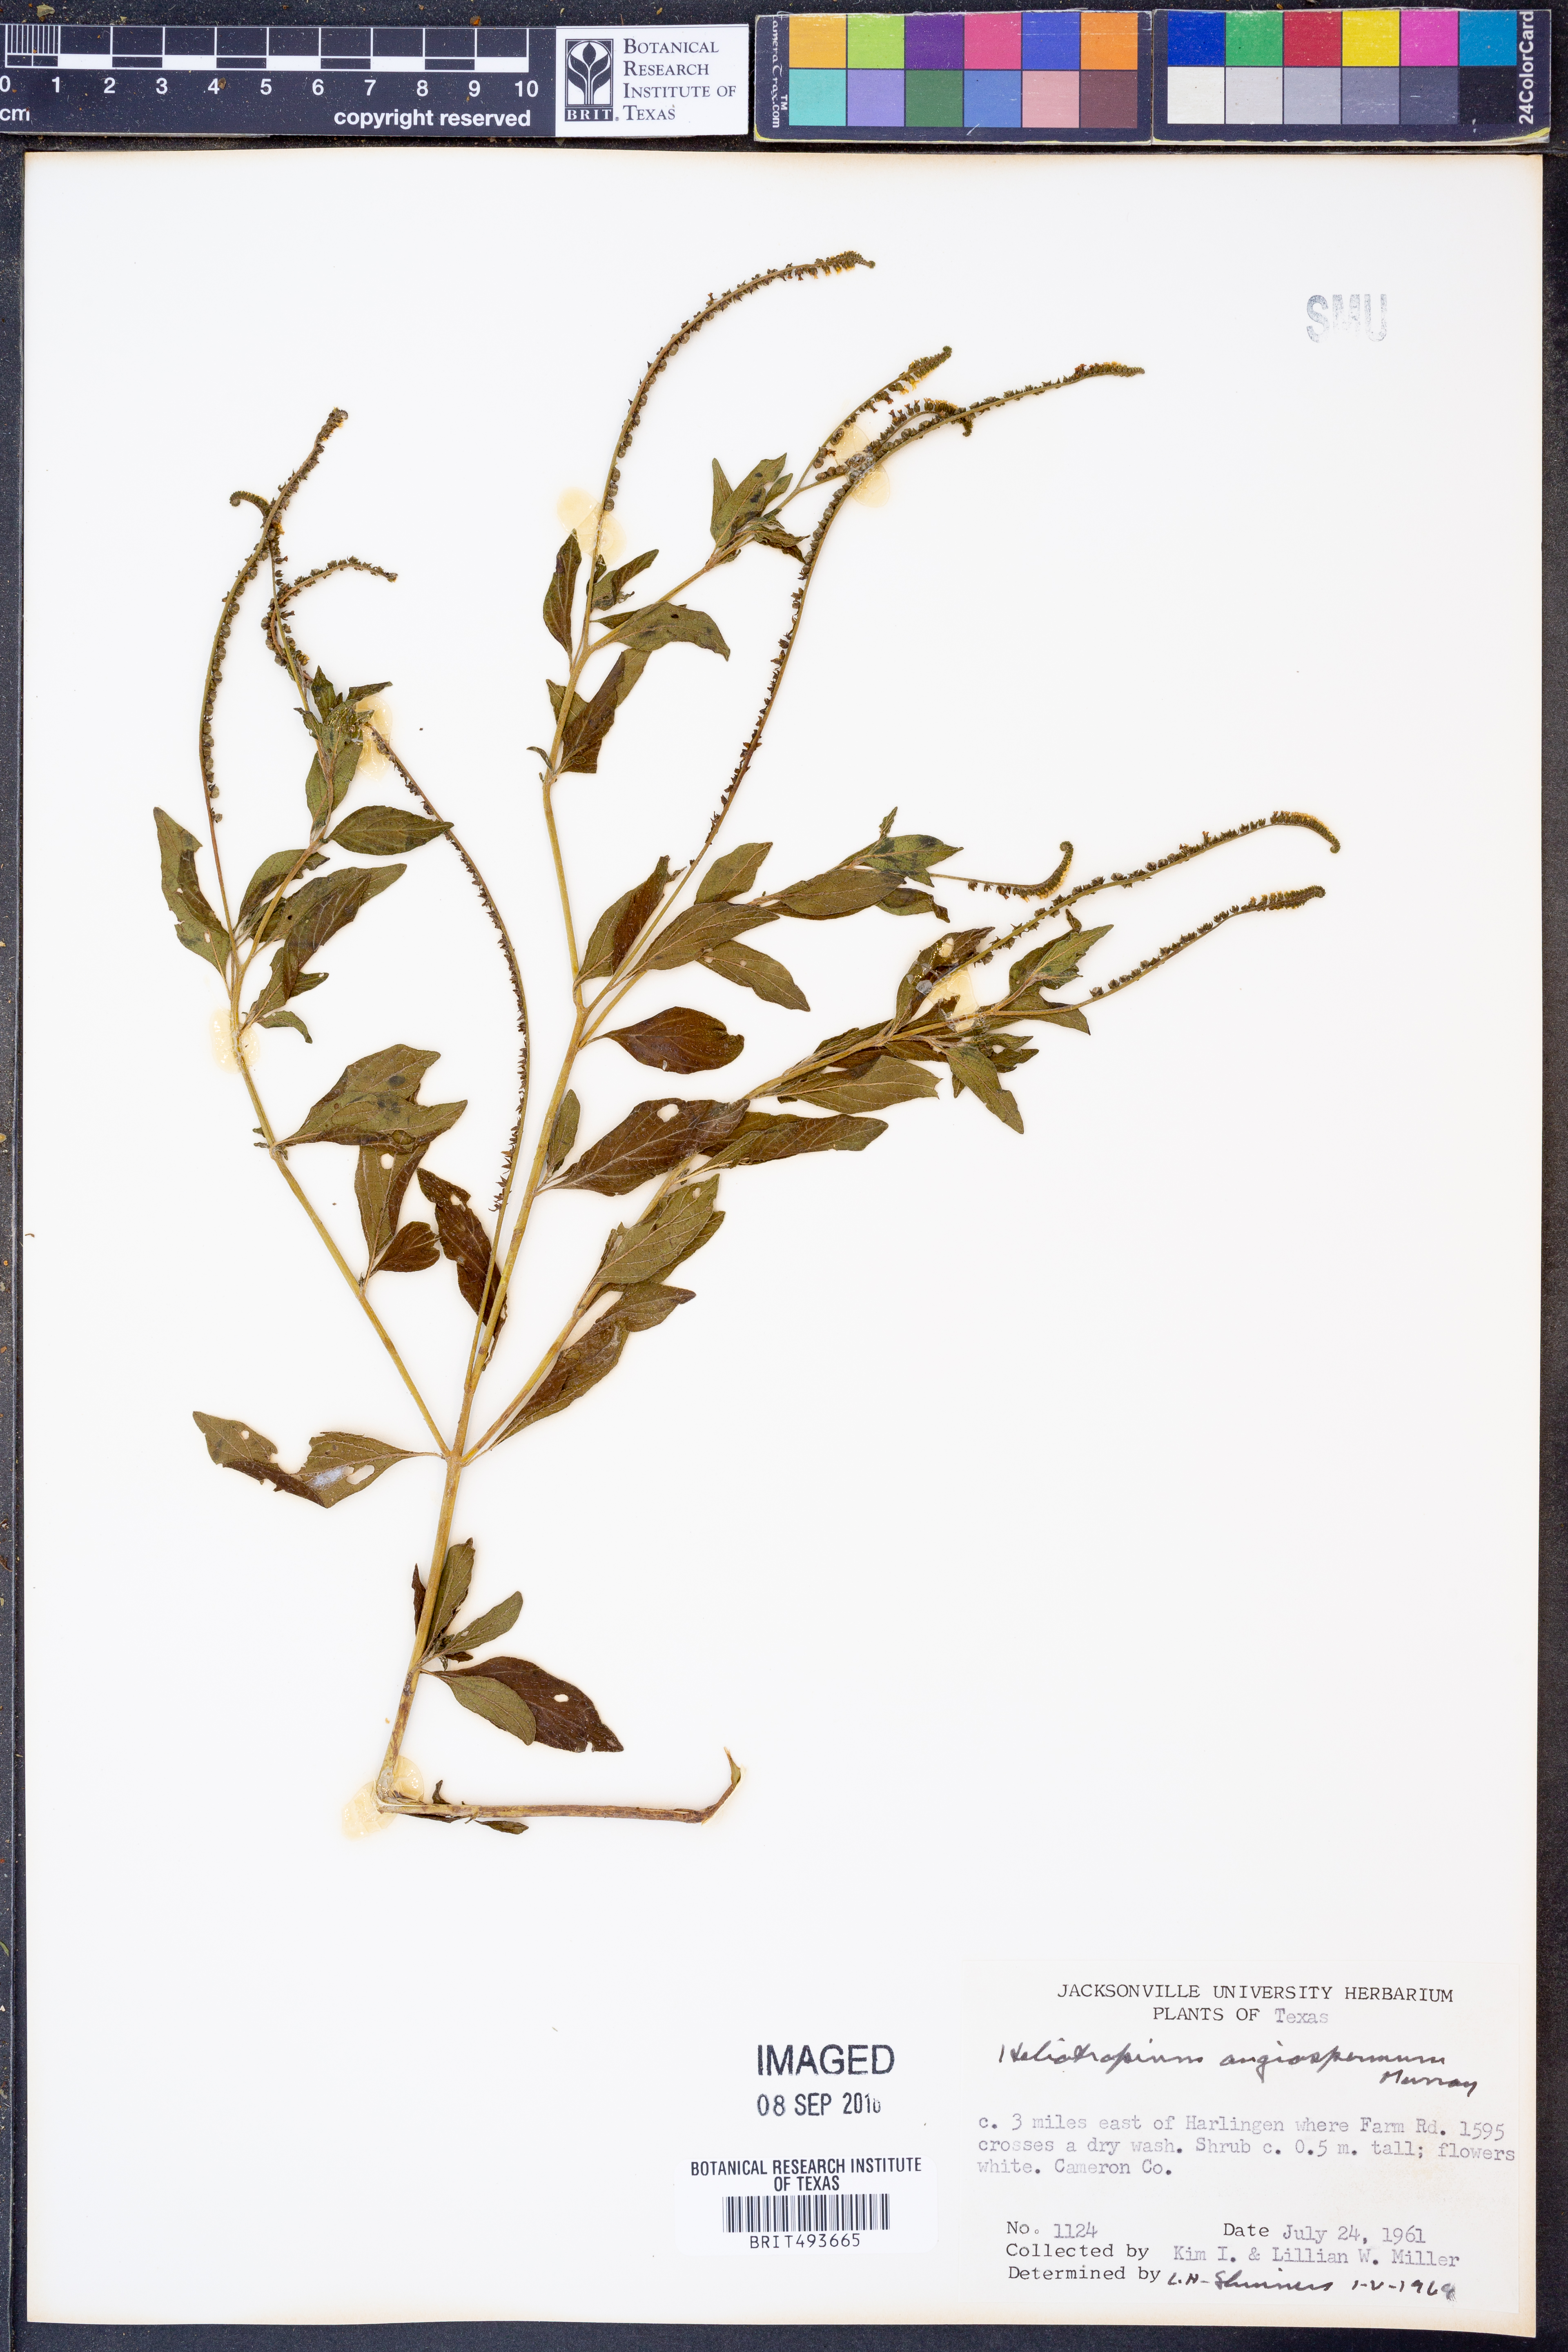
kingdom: Plantae
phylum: Tracheophyta
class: Magnoliopsida
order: Boraginales
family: Heliotropiaceae
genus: Heliotropium
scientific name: Heliotropium angiospermum
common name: Eye bright
